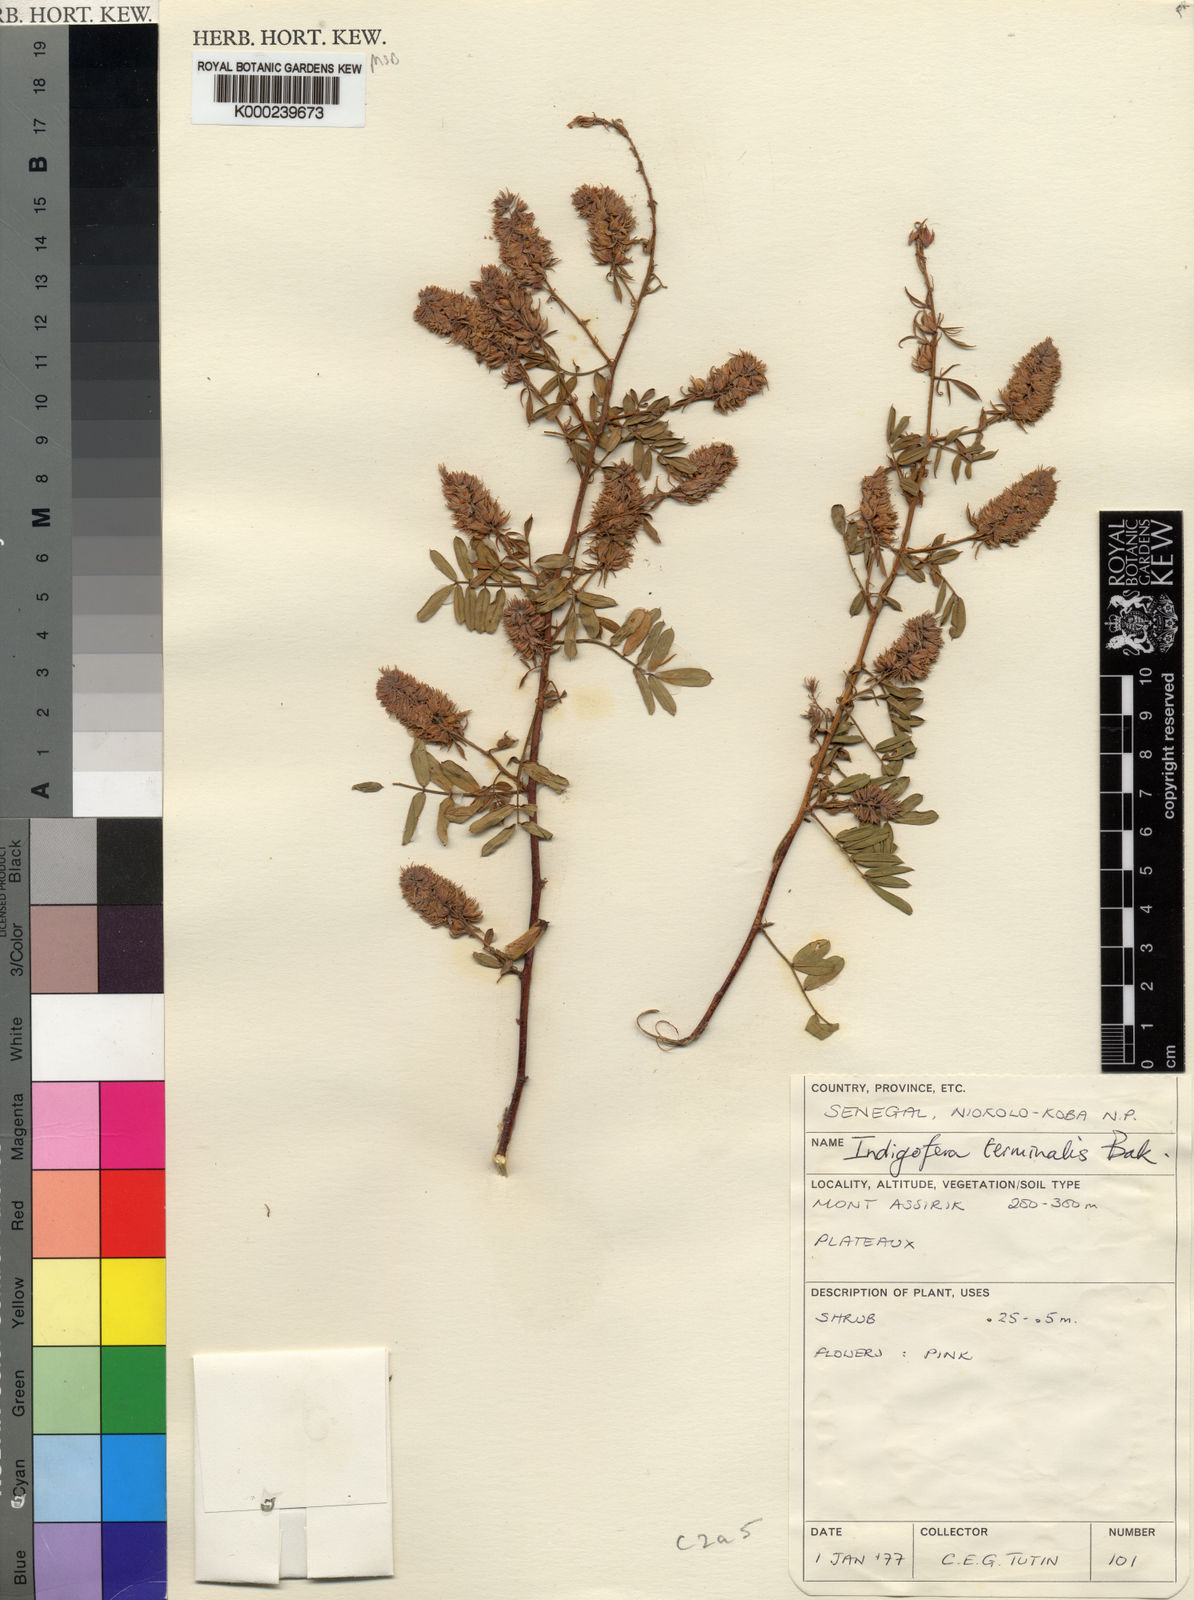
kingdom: Plantae
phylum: Tracheophyta
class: Magnoliopsida
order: Fabales
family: Fabaceae
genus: Indigofera
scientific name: Indigofera terminalis
